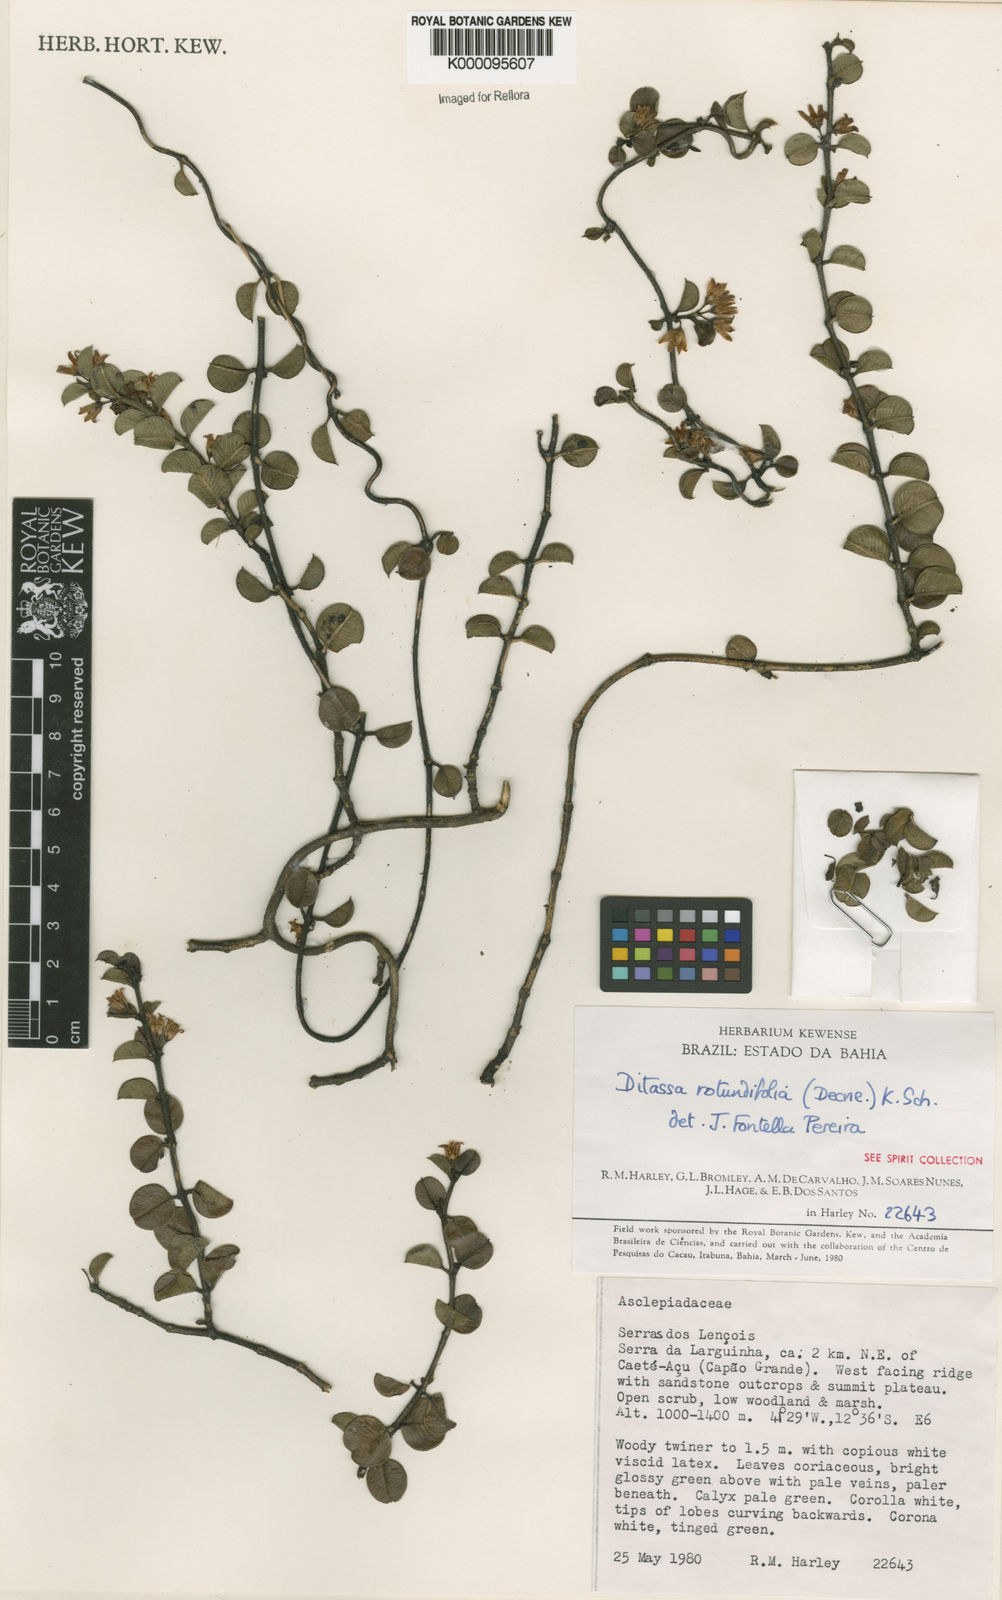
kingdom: Plantae
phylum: Tracheophyta
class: Magnoliopsida
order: Gentianales
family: Apocynaceae
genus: Ditassa
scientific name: Ditassa
